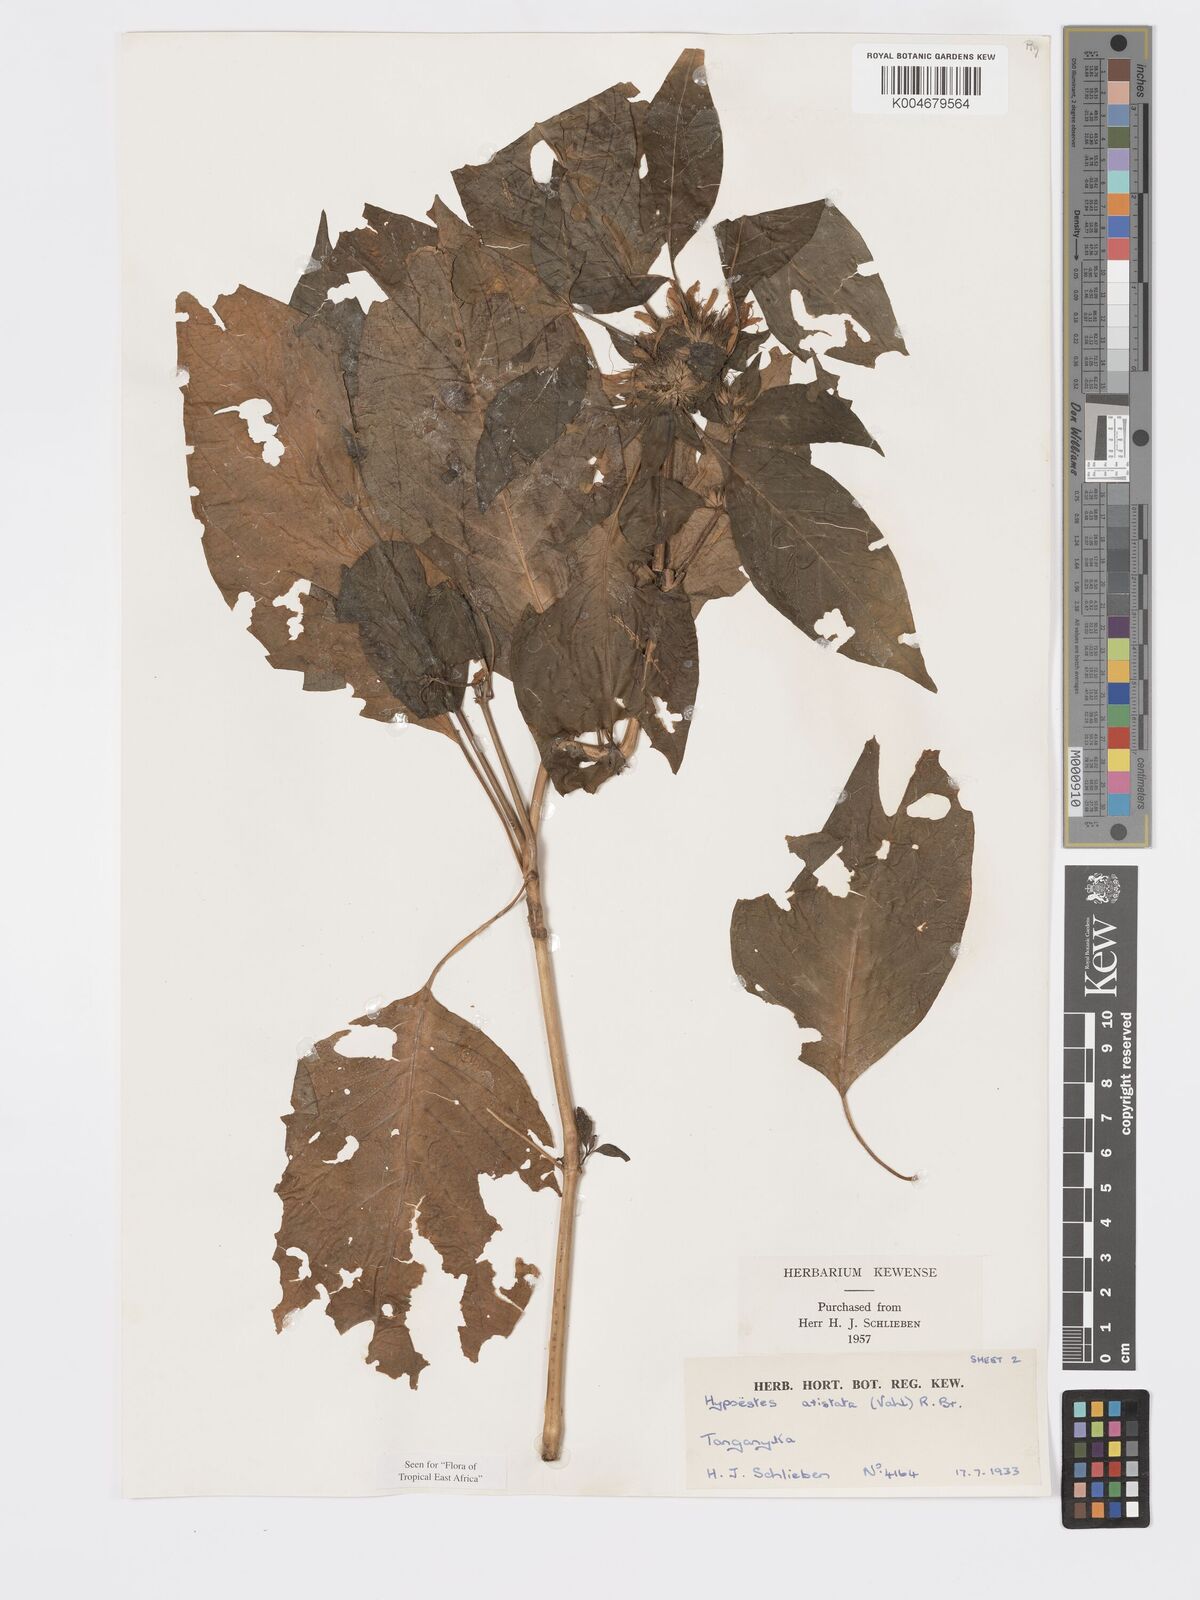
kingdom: Plantae
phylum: Tracheophyta
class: Magnoliopsida
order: Lamiales
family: Acanthaceae
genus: Hypoestes
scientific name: Hypoestes aristata
